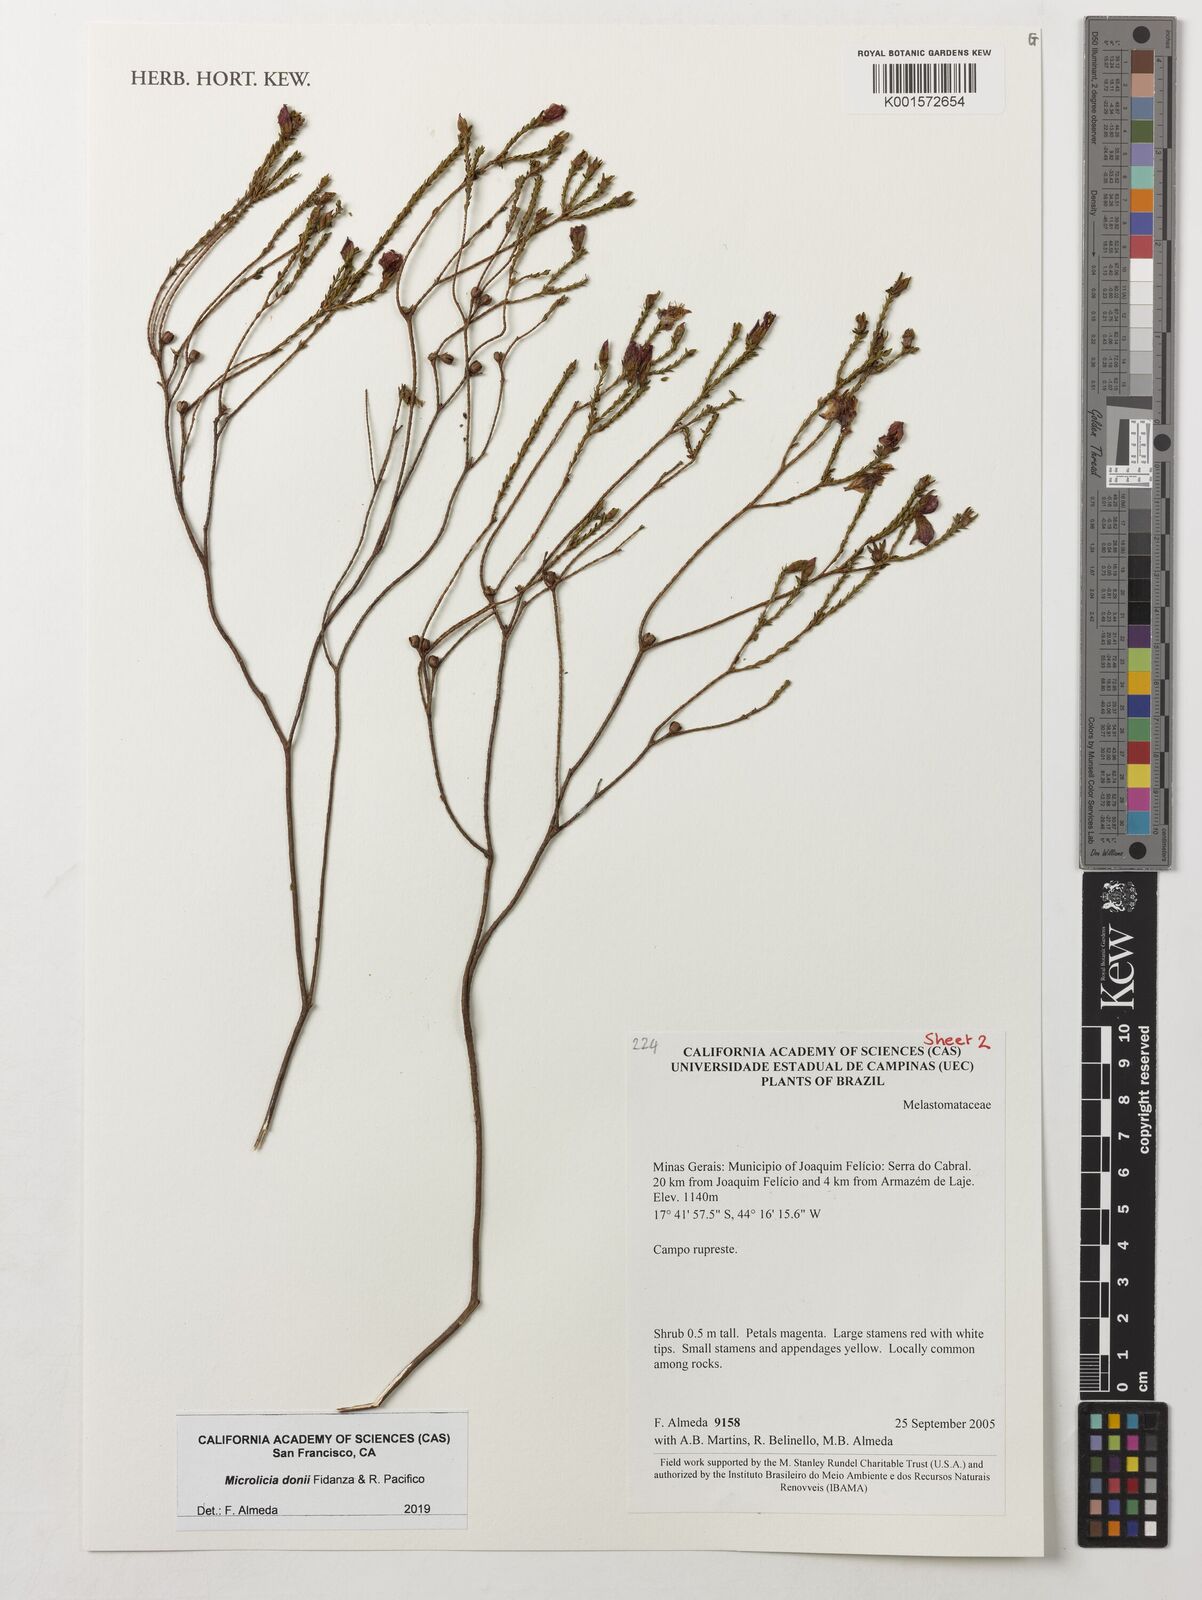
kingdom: Plantae
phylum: Tracheophyta
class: Magnoliopsida
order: Myrtales
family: Melastomataceae
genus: Microlicia
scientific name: Microlicia donii
